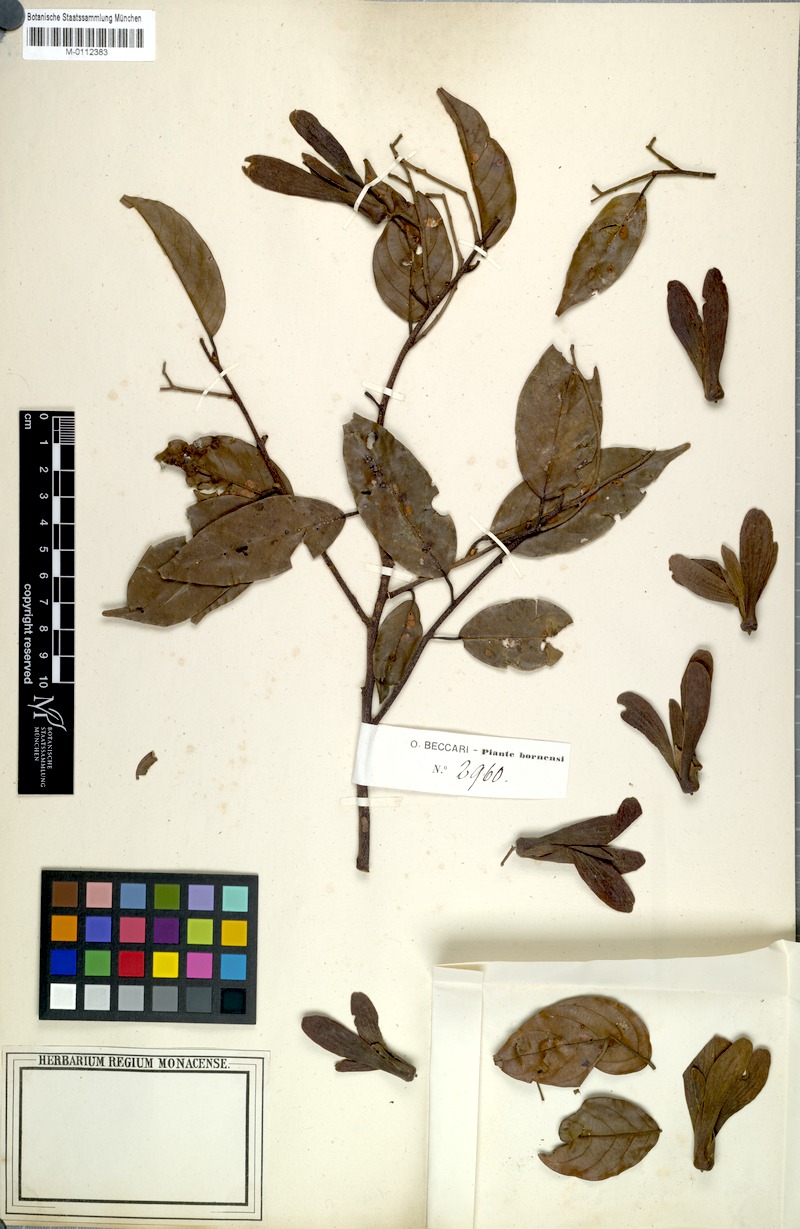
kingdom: Plantae
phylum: Tracheophyta
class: Magnoliopsida
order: Malvales
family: Dipterocarpaceae
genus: Shorea
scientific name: Shorea
